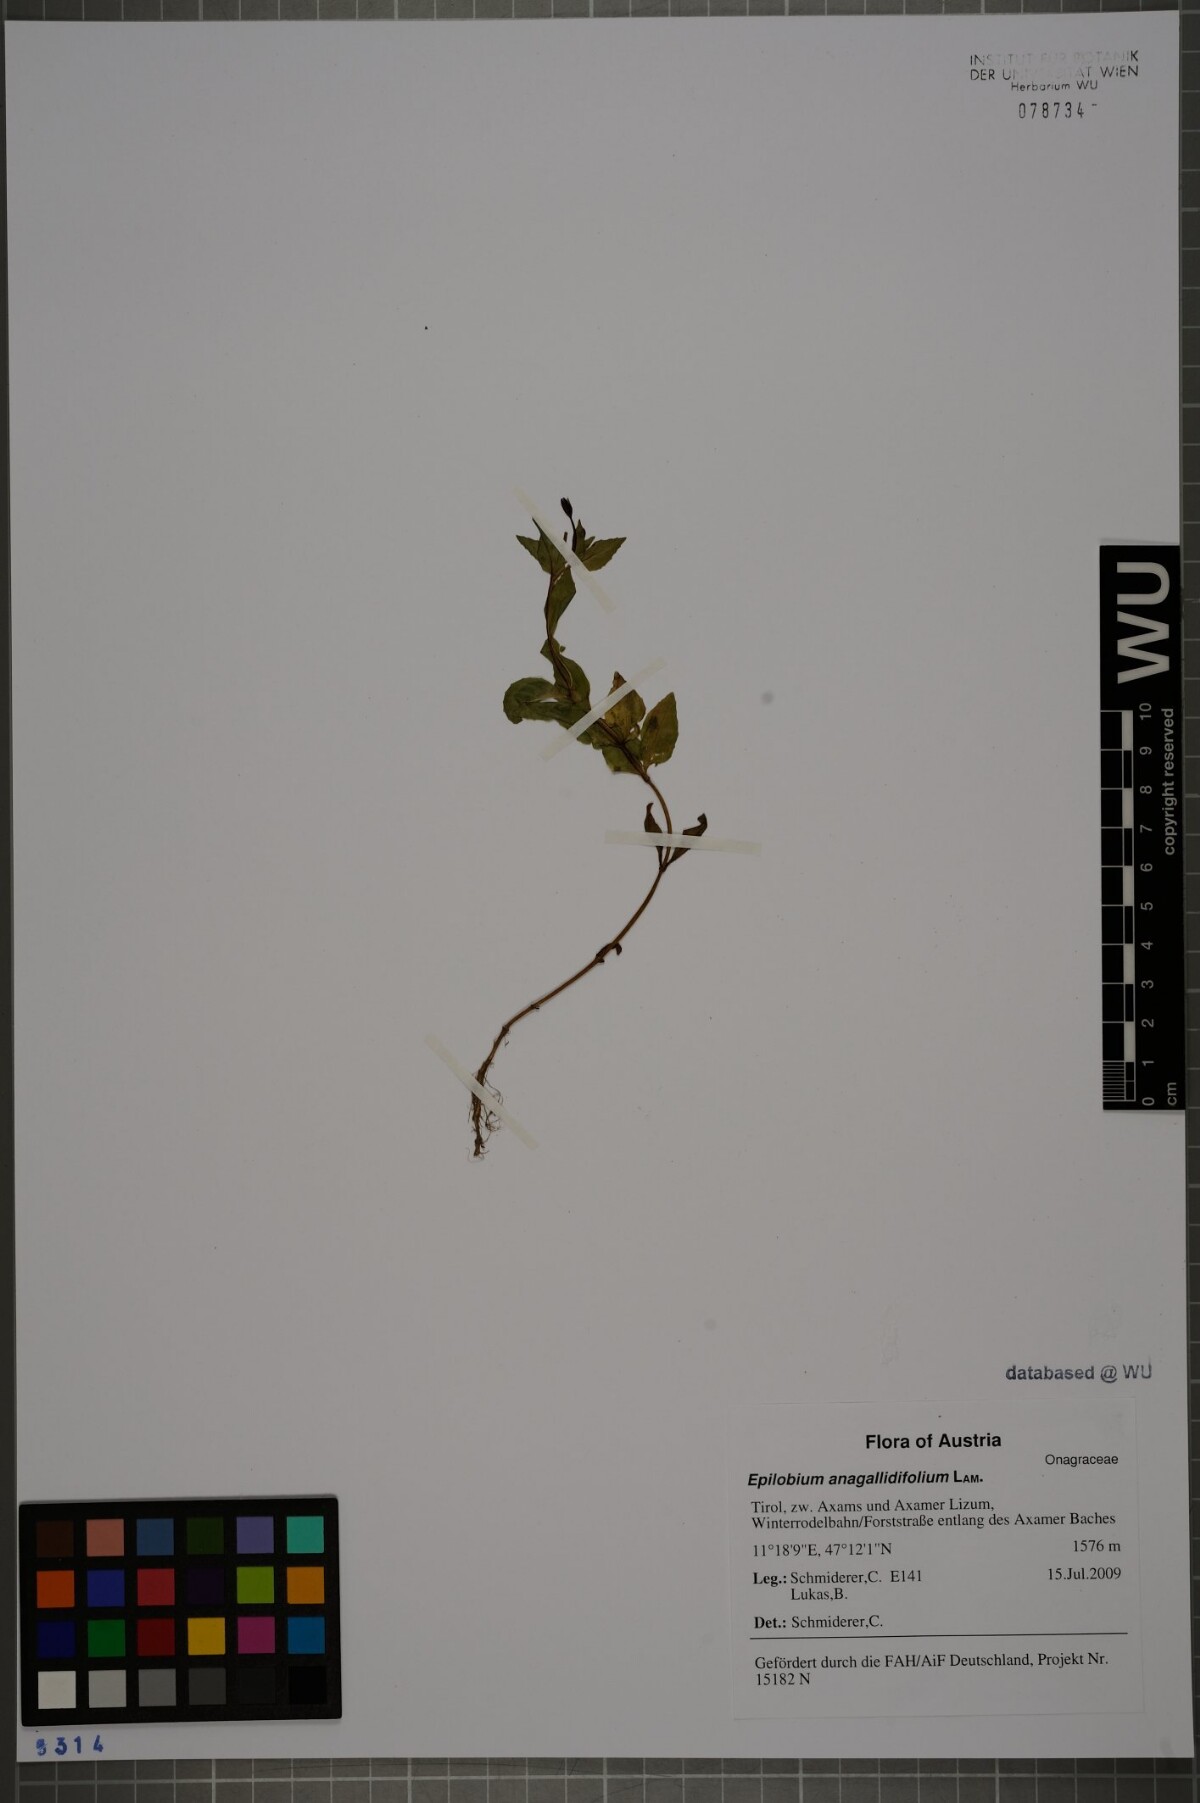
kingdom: Plantae
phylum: Tracheophyta
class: Magnoliopsida
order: Myrtales
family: Onagraceae
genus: Epilobium
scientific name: Epilobium anagallidifolium
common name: Alpine willowherb
